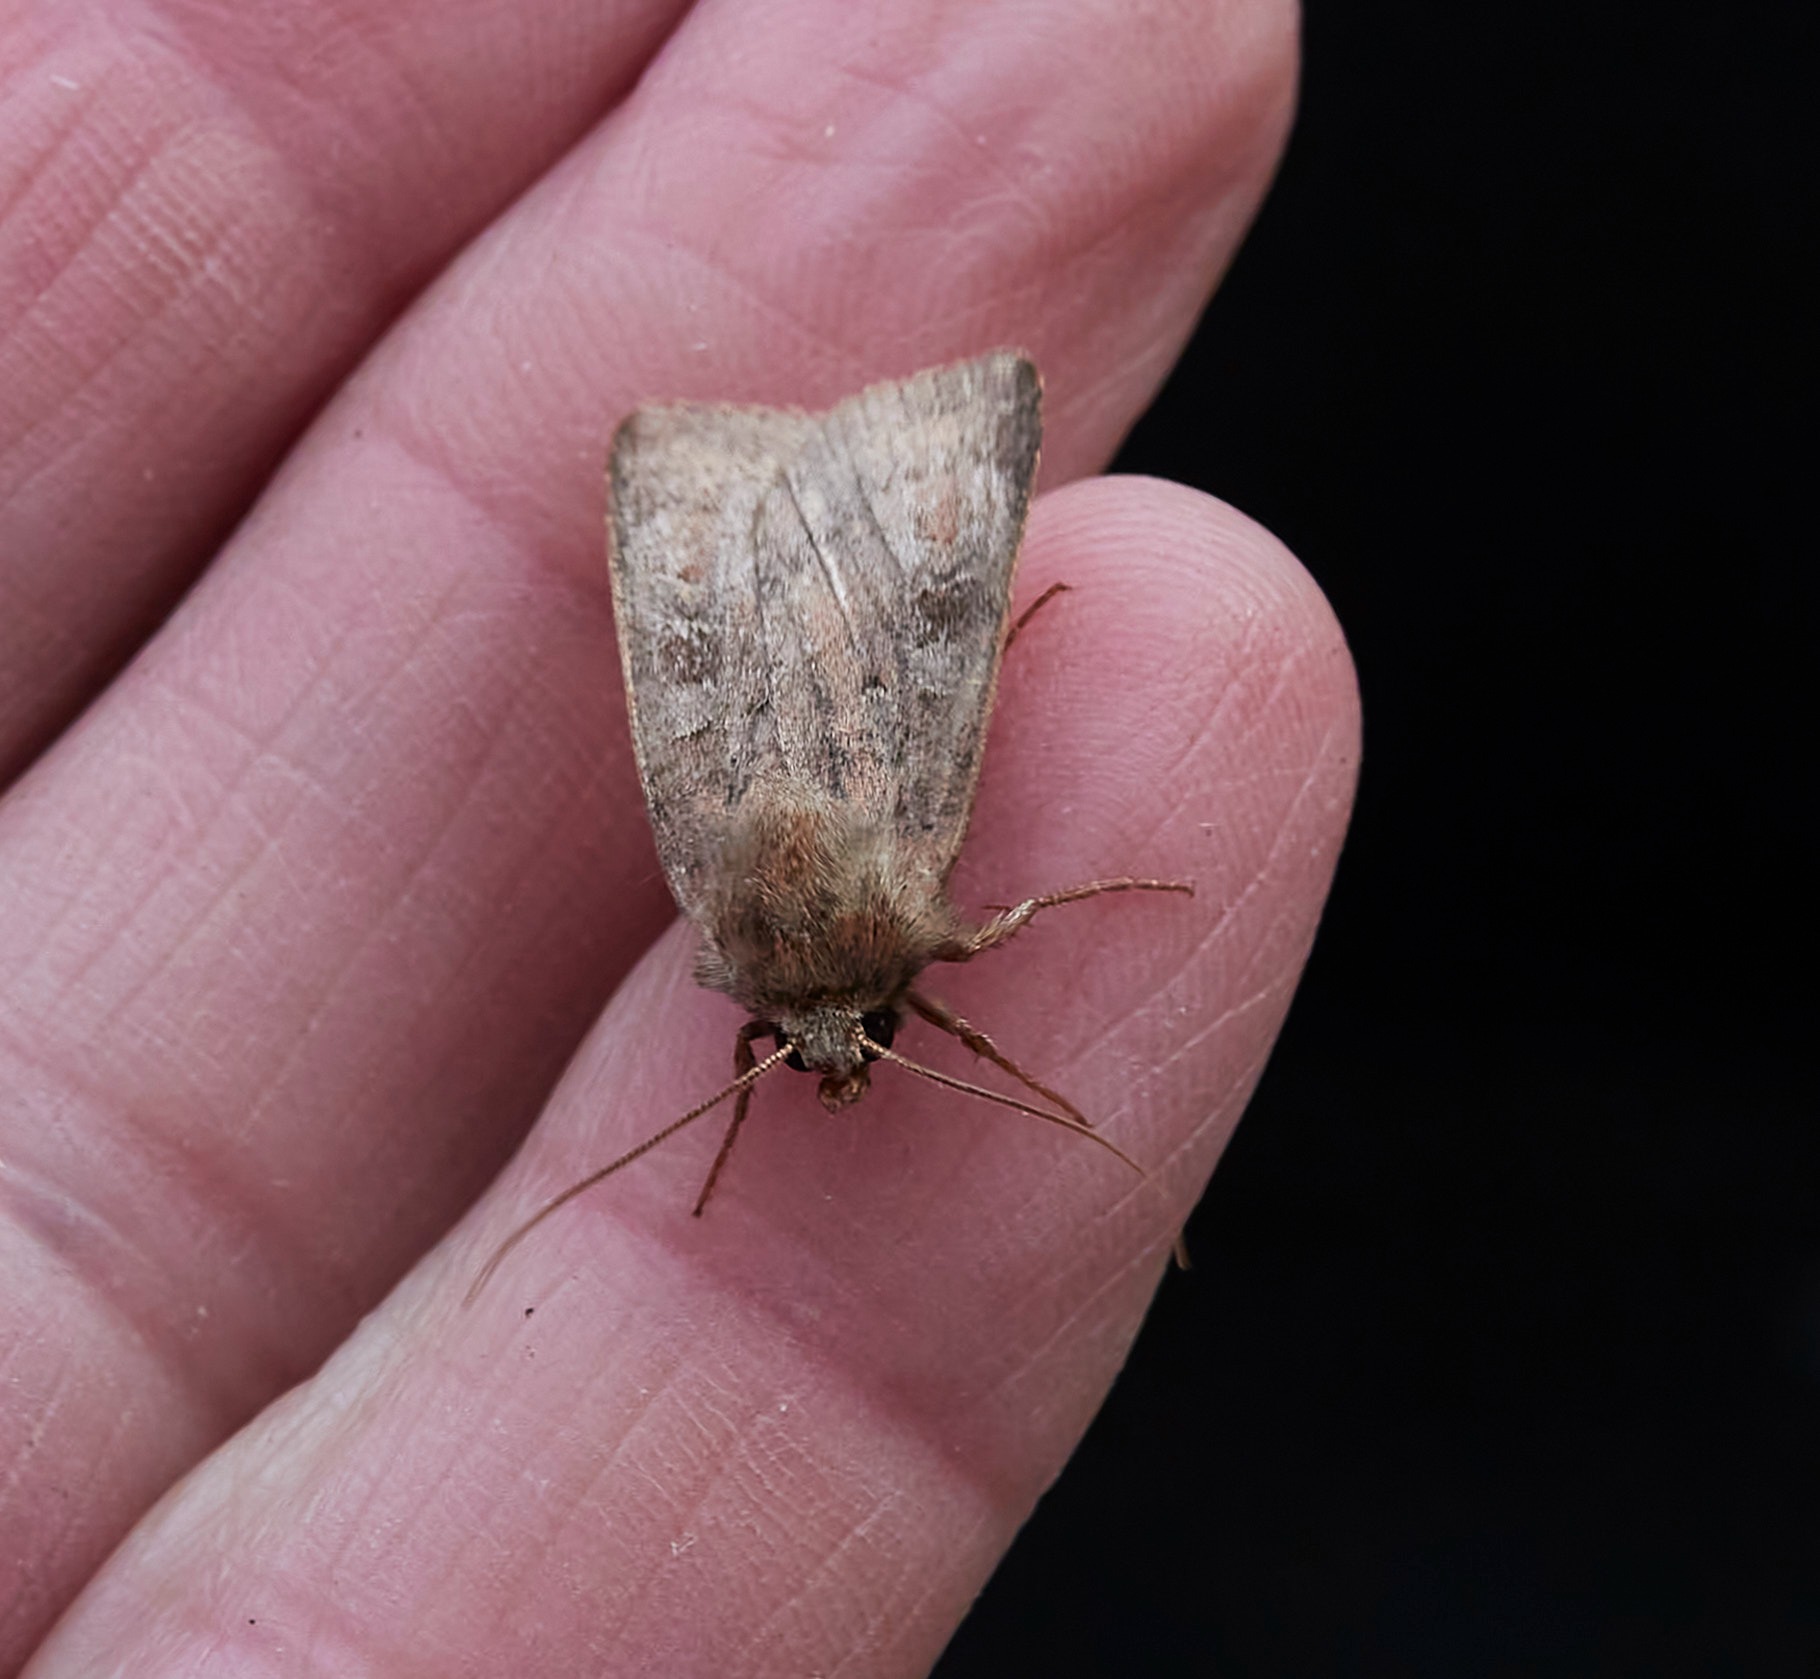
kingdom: Animalia
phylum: Arthropoda
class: Insecta
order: Lepidoptera
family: Noctuidae
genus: Diarsia
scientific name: Diarsia rubi
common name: Brombærtiggerugle
